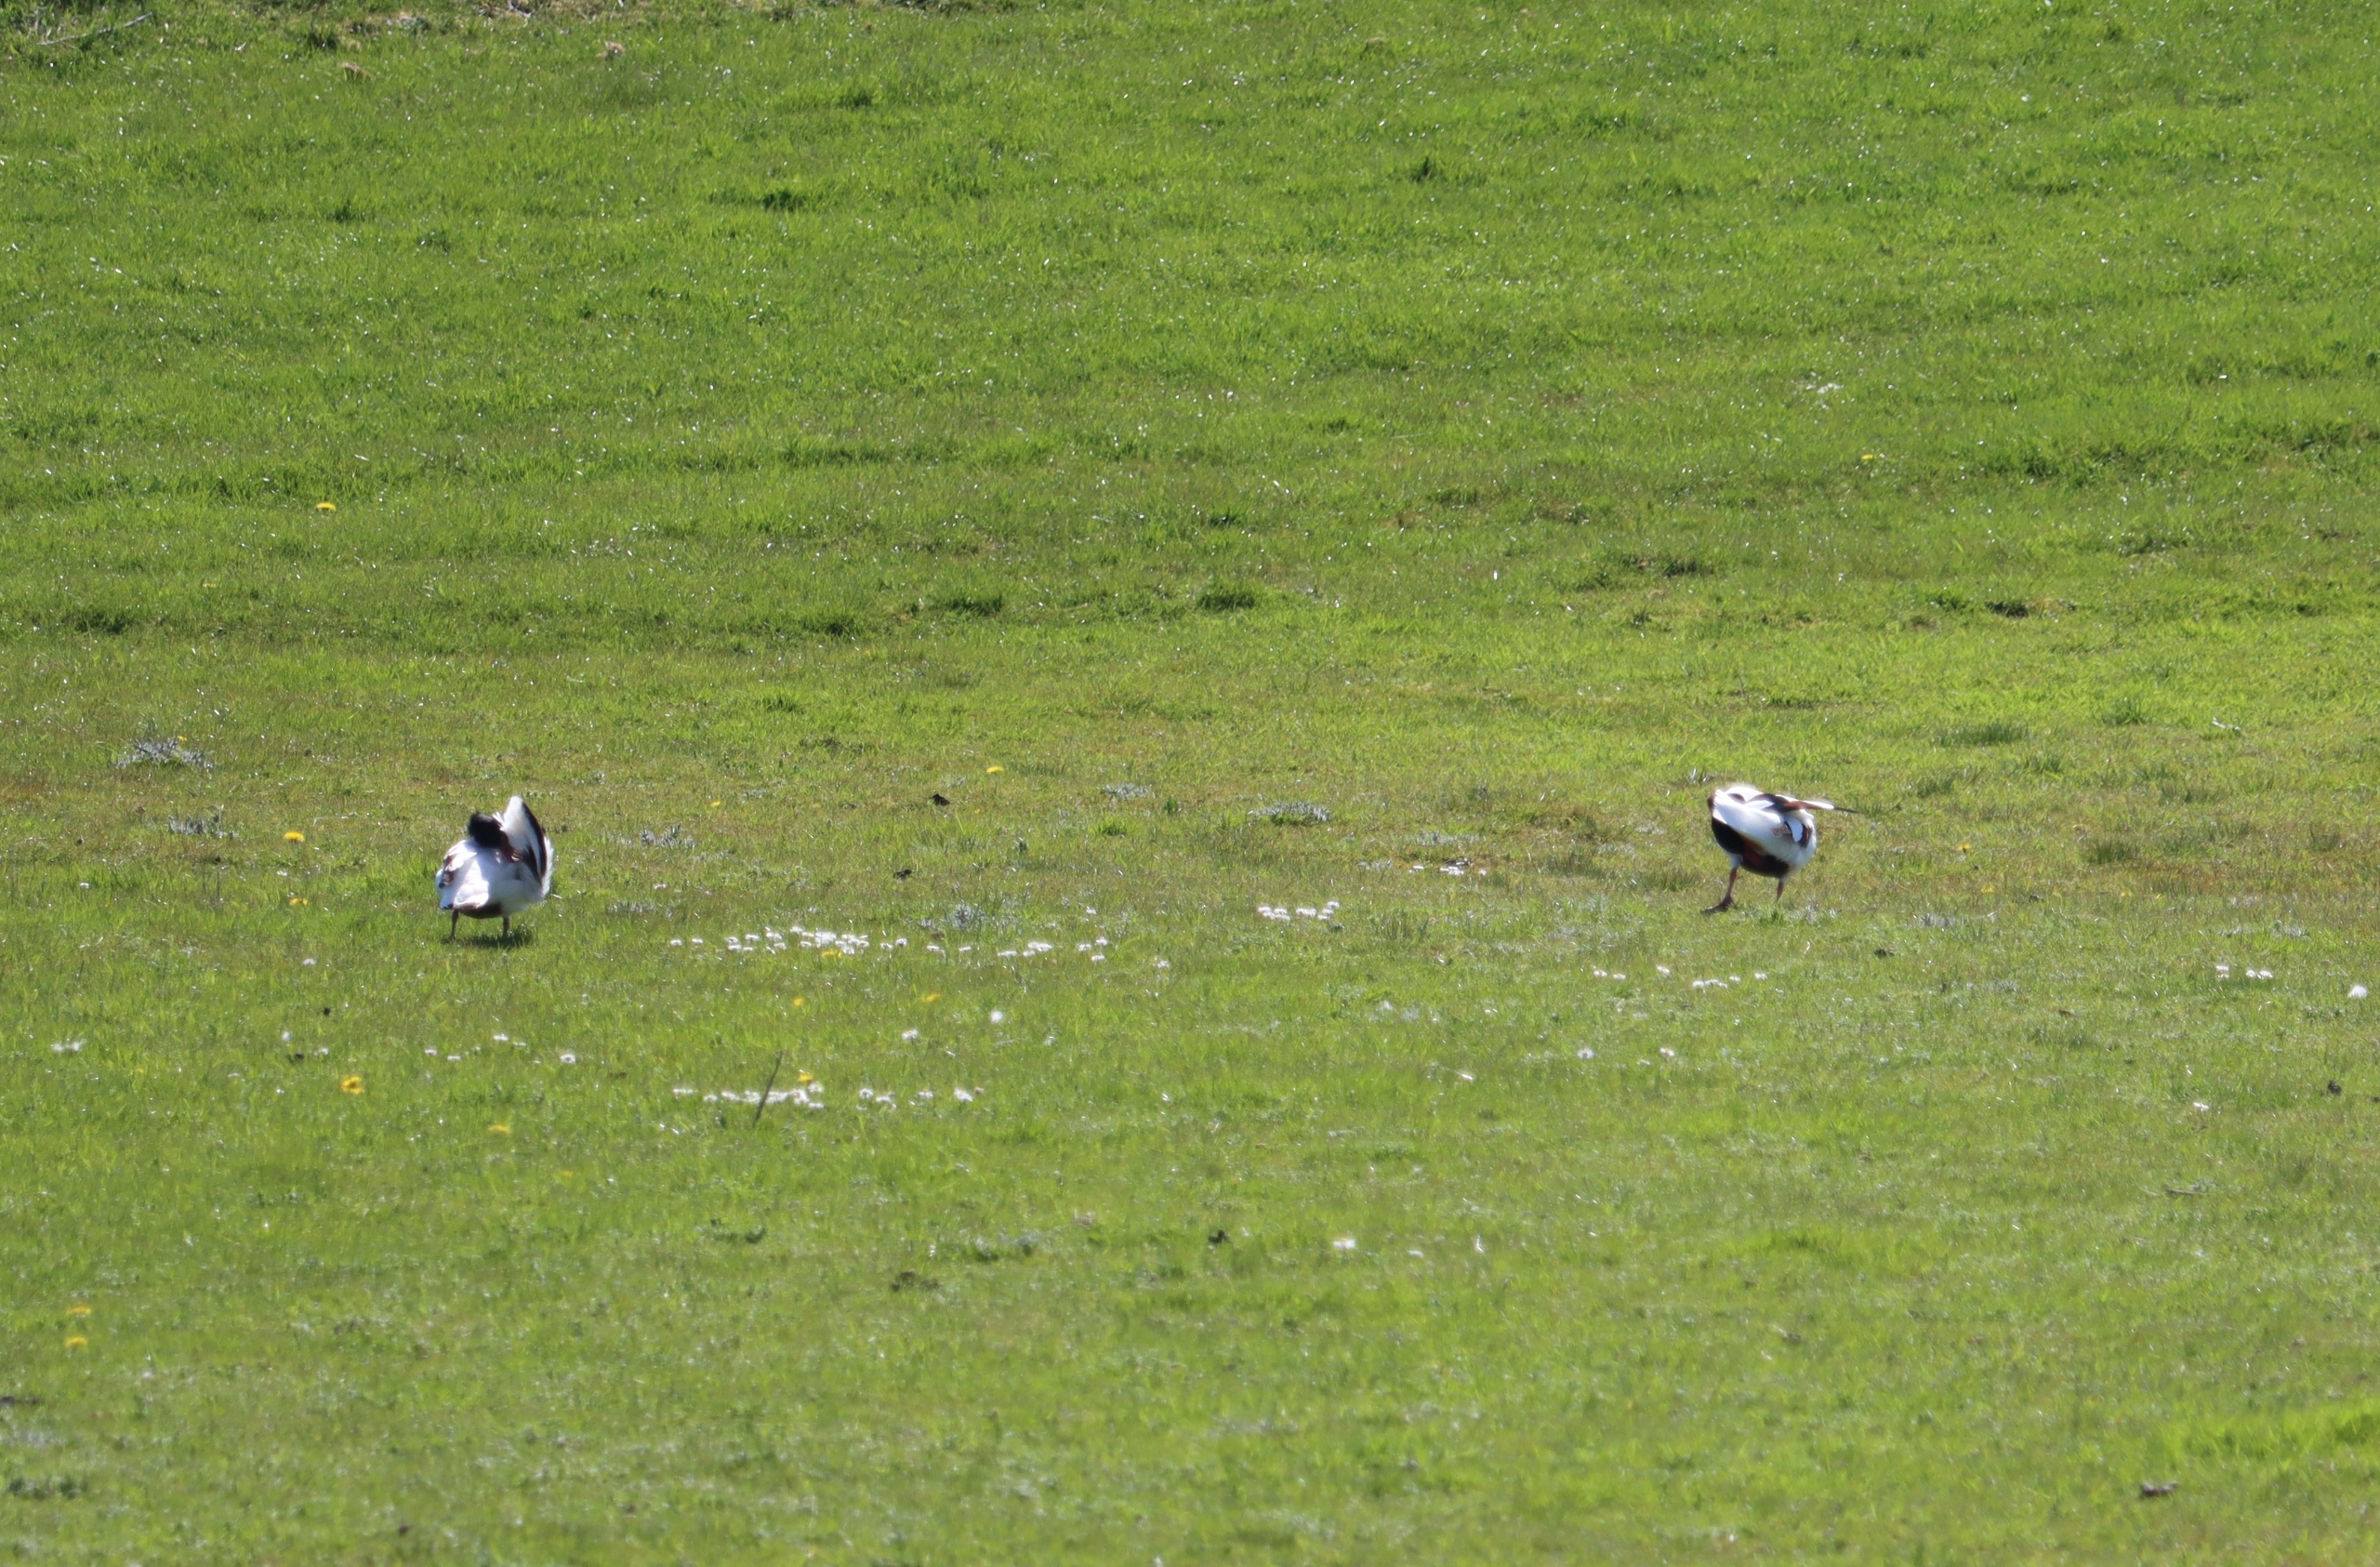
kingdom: Animalia
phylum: Chordata
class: Aves
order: Anseriformes
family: Anatidae
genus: Tadorna
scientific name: Tadorna tadorna
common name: Gravand
